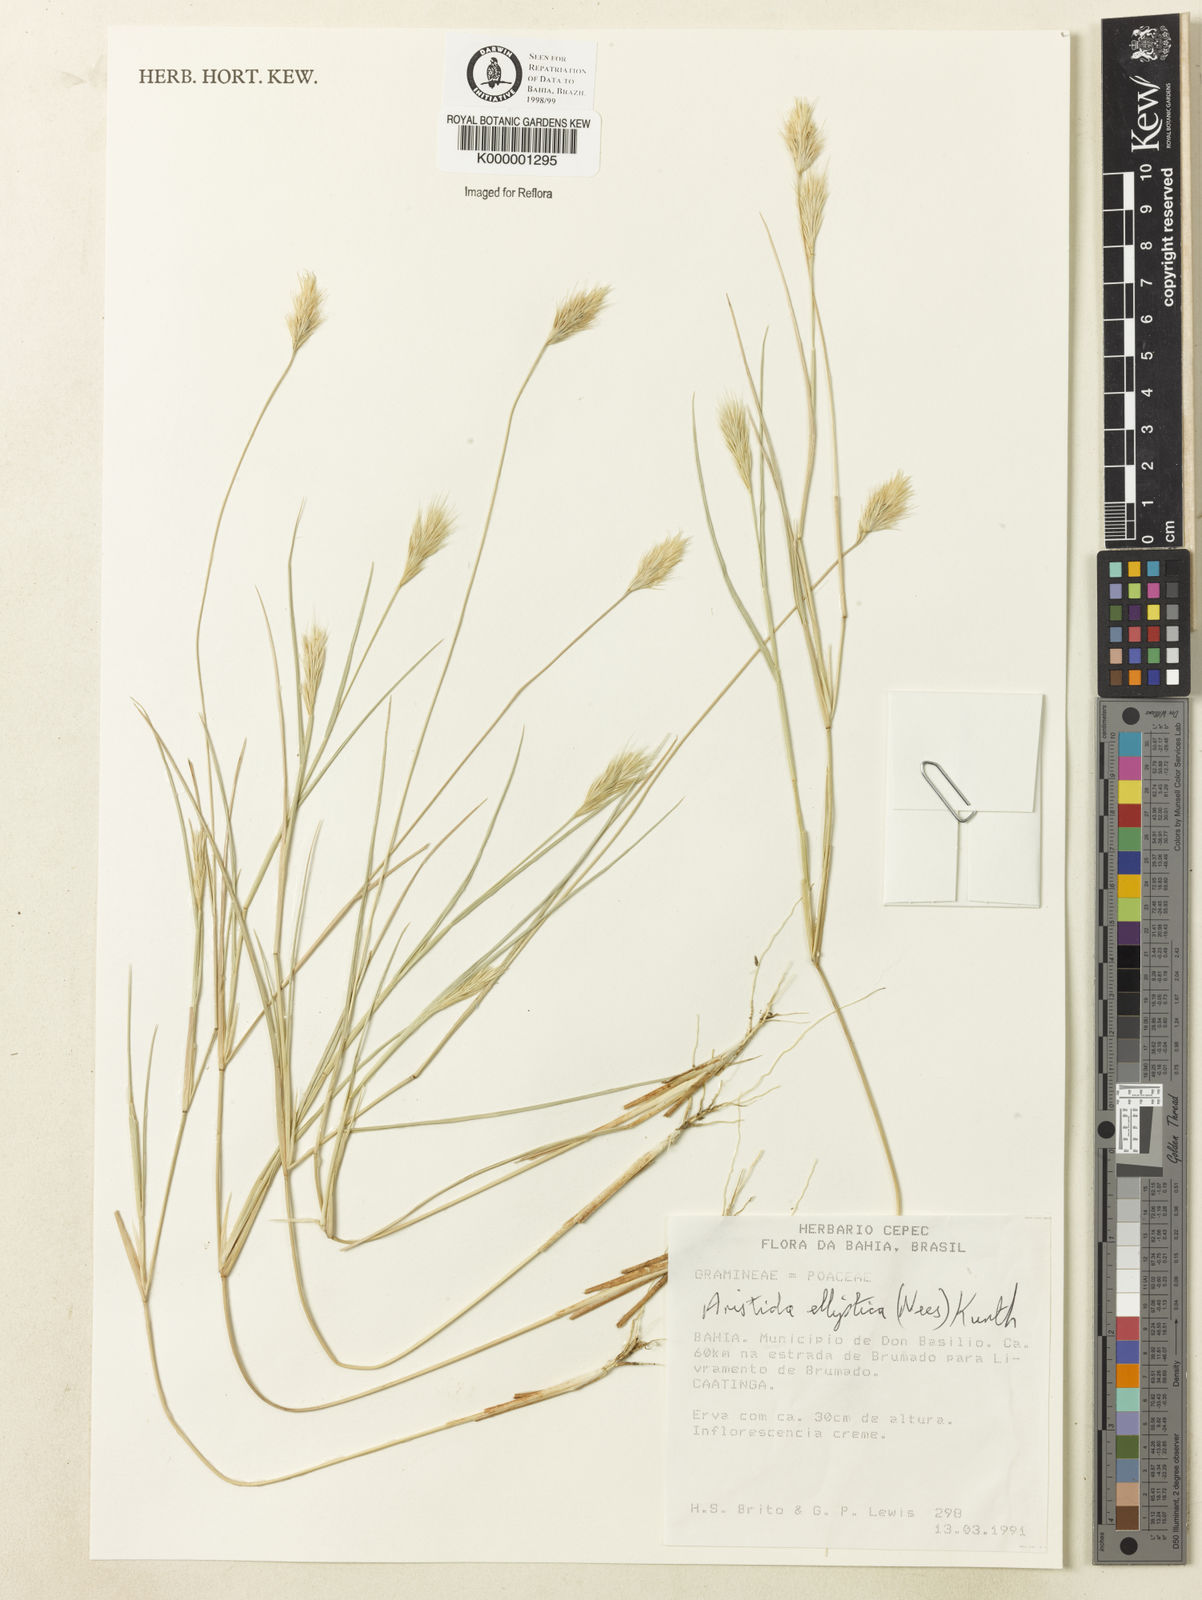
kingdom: Plantae
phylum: Tracheophyta
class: Liliopsida
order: Poales
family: Poaceae
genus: Aristida
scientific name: Aristida elliptica
